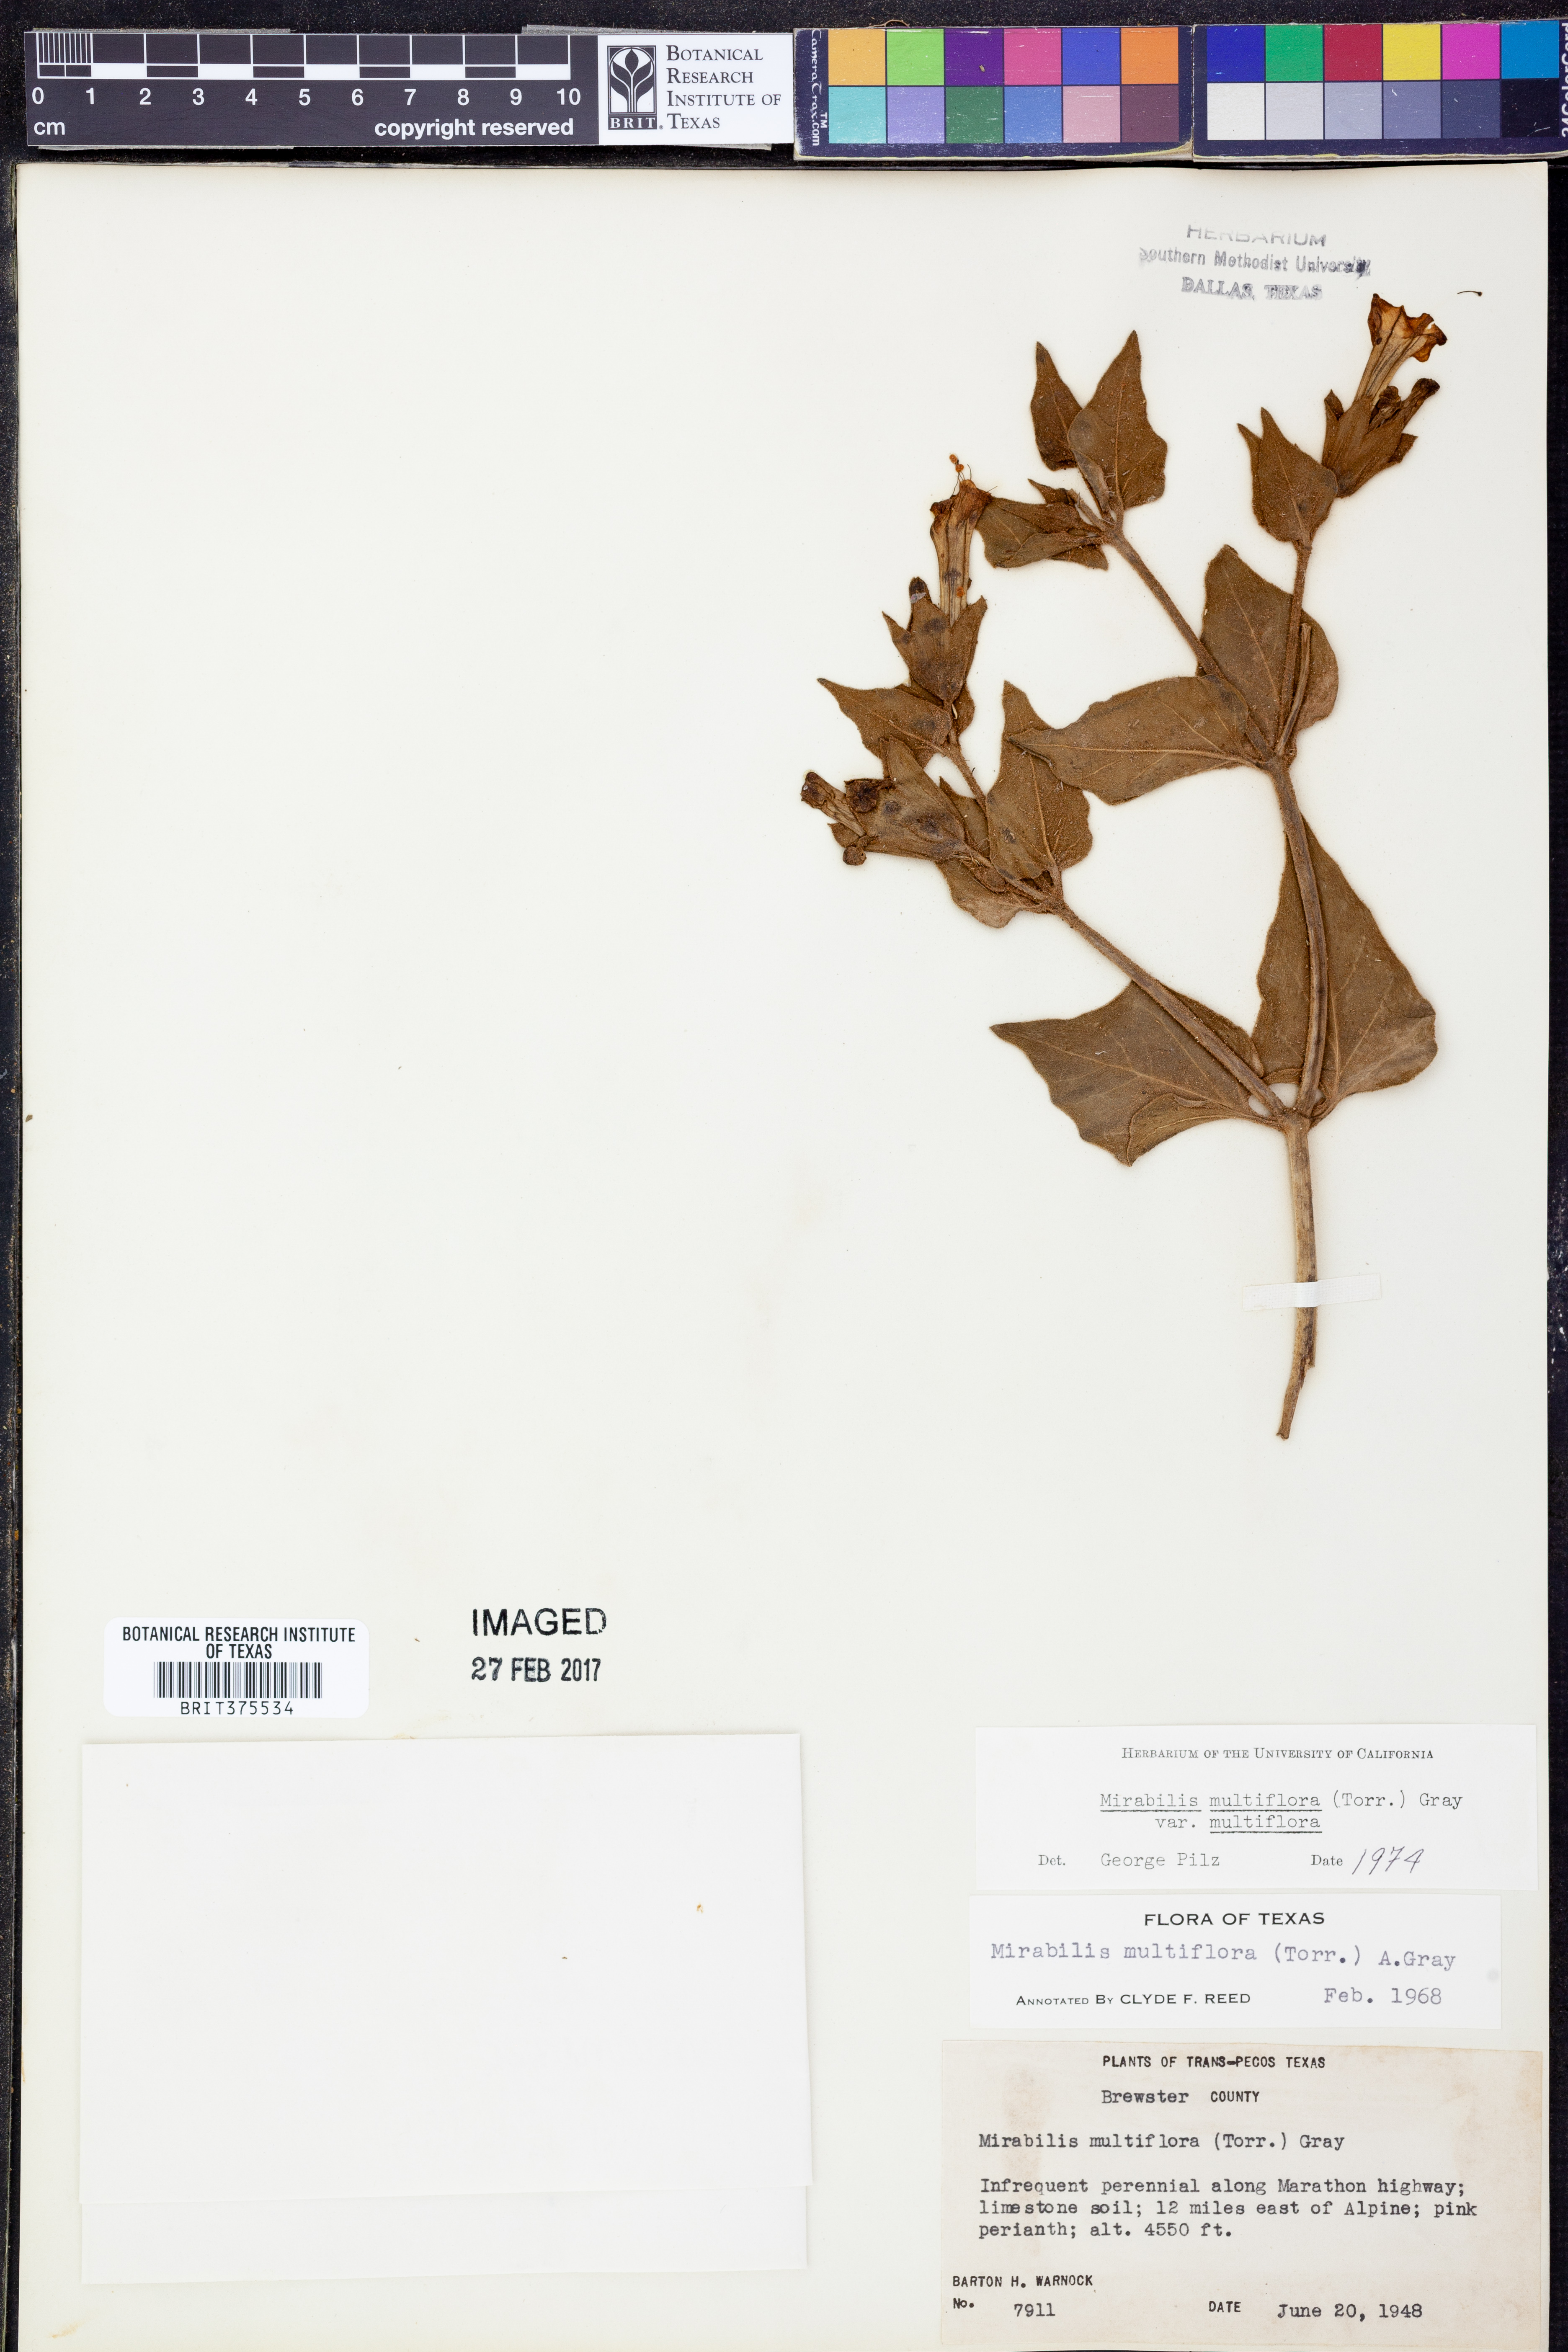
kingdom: Plantae
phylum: Tracheophyta
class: Magnoliopsida
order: Caryophyllales
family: Nyctaginaceae
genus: Mirabilis
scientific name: Mirabilis multiflora
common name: Froebel's four-o'clock
